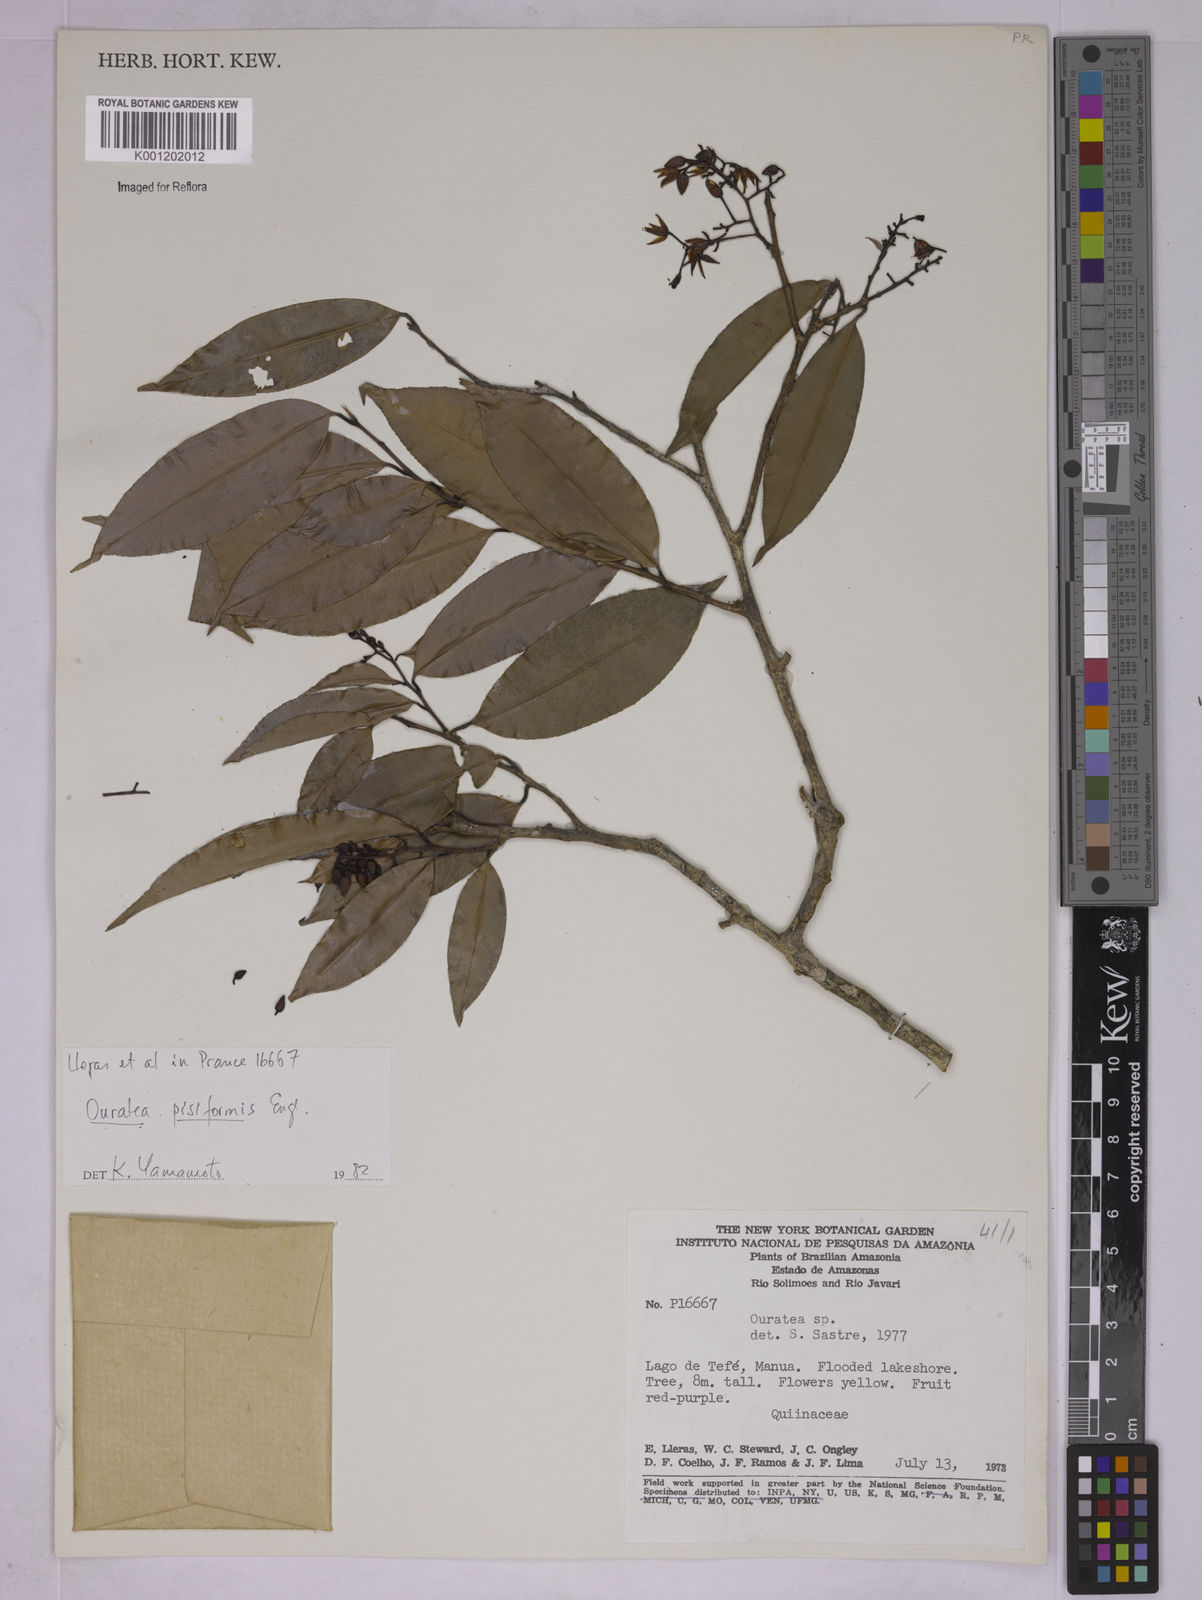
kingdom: Plantae
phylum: Tracheophyta
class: Magnoliopsida
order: Malpighiales
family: Ochnaceae
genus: Ouratea
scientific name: Ouratea pisiformis
